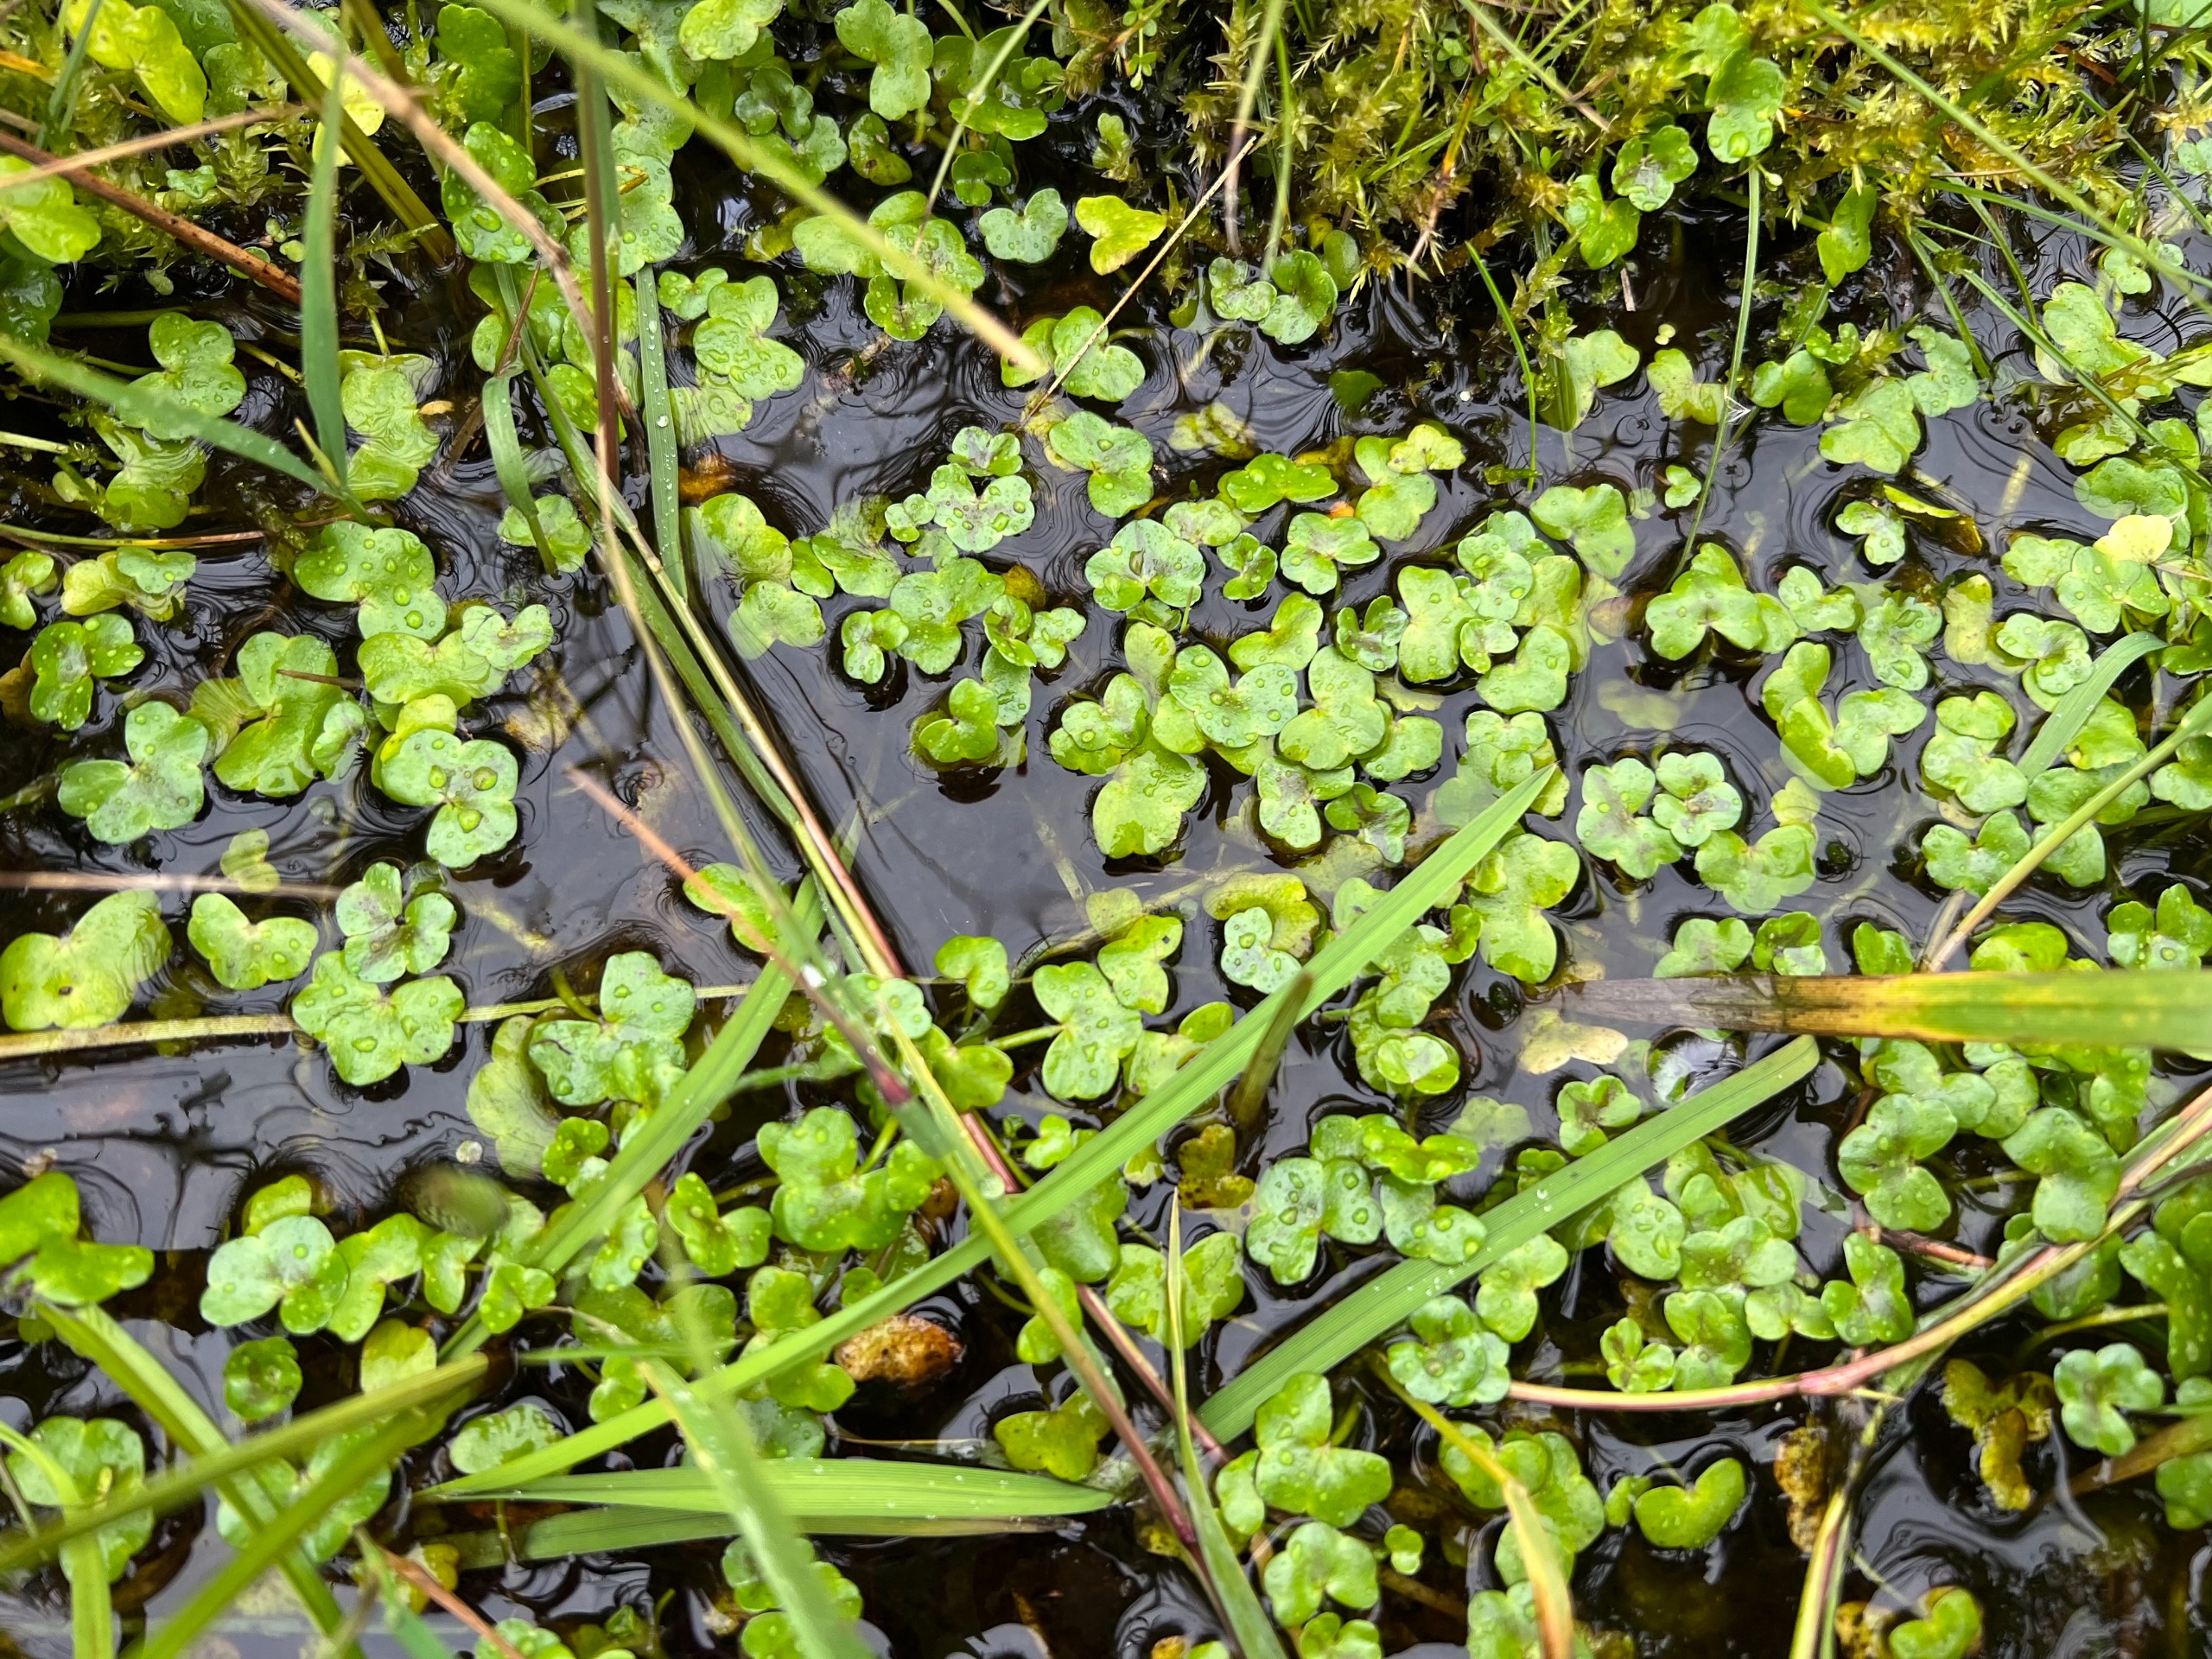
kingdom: Plantae
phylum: Tracheophyta
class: Magnoliopsida
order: Ranunculales
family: Ranunculaceae
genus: Ranunculus
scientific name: Ranunculus hederaceus
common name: Vedbend-vandranunkel
